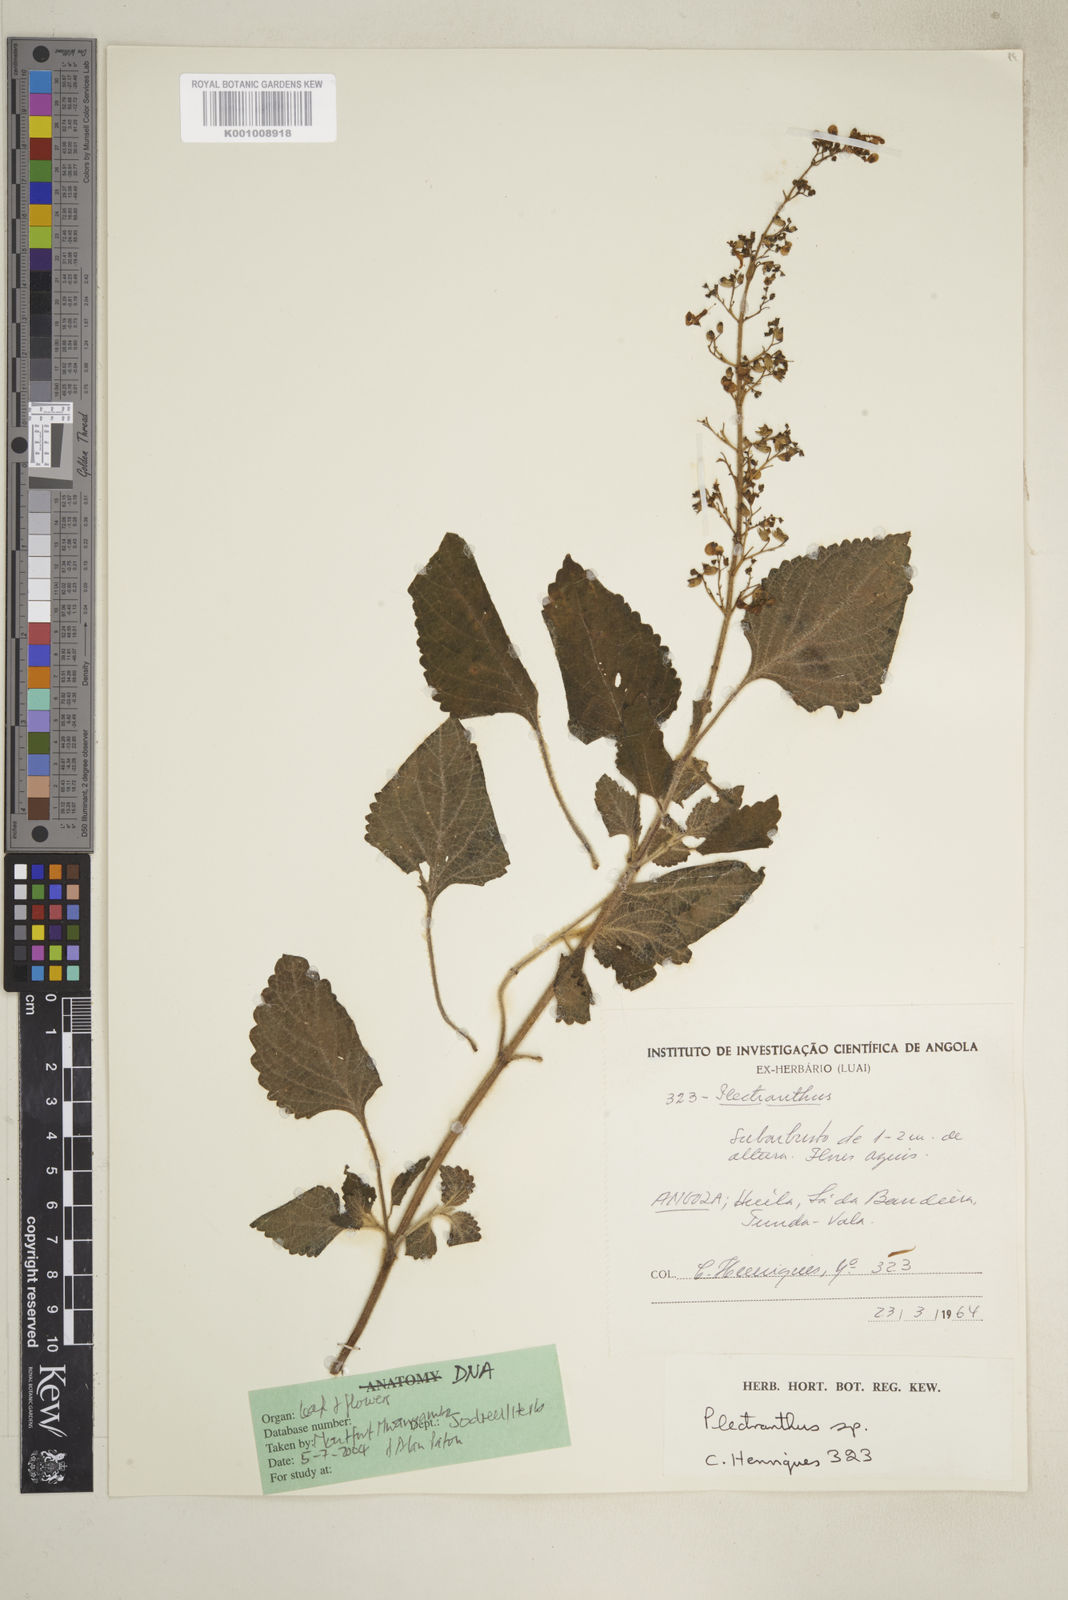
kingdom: Plantae
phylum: Tracheophyta
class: Magnoliopsida
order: Lamiales
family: Lamiaceae
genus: Coleus
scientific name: Coleus tenuicaulis
